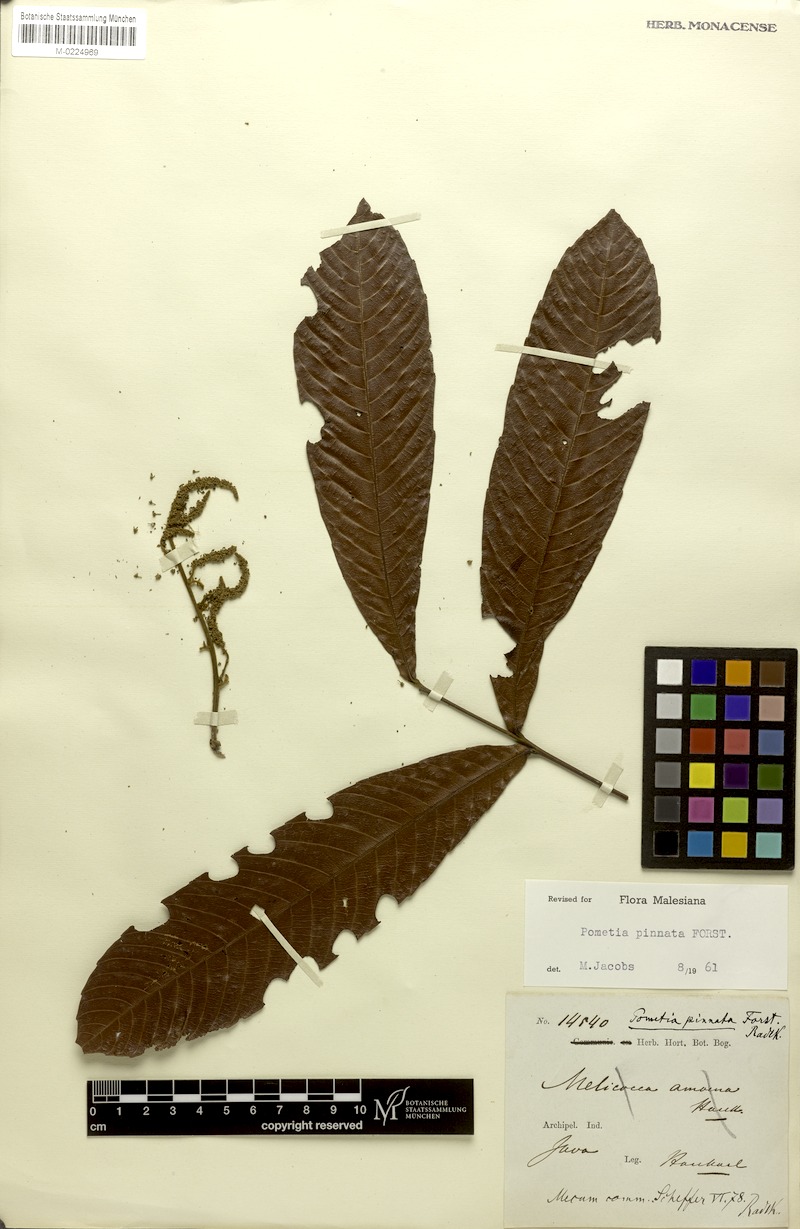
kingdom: Plantae
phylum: Tracheophyta
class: Magnoliopsida
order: Sapindales
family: Sapindaceae
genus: Pometia
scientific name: Pometia pinnata
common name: Oceanic lychee
